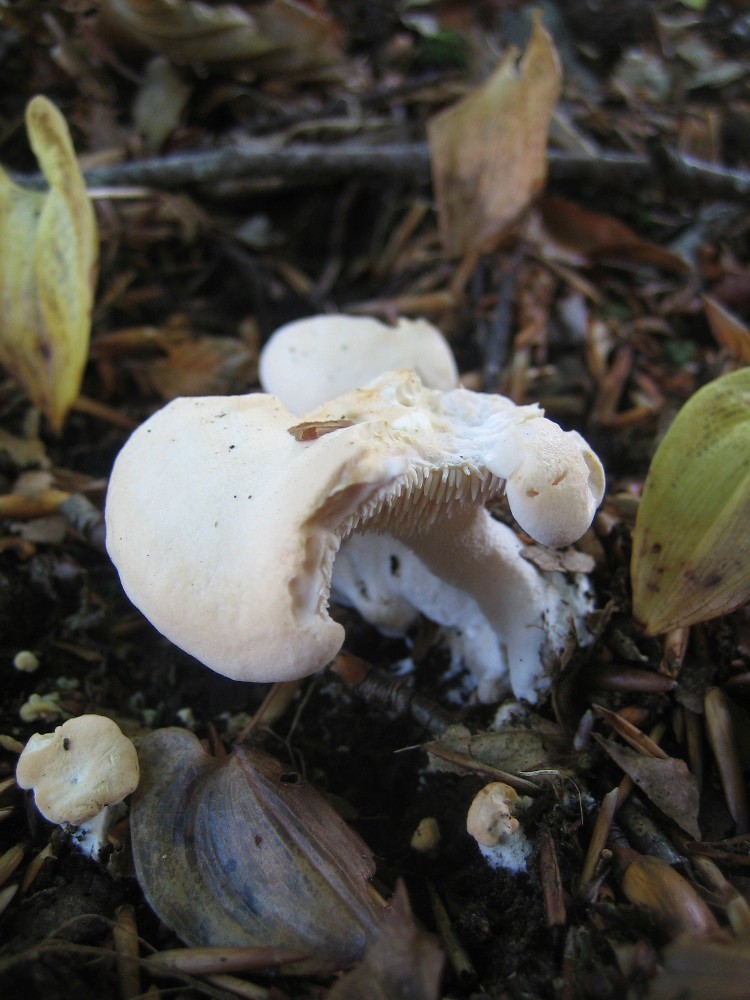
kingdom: Fungi
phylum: Basidiomycota
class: Agaricomycetes
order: Cantharellales
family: Hydnaceae
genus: Hydnum
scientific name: Hydnum
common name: pigsvamp
